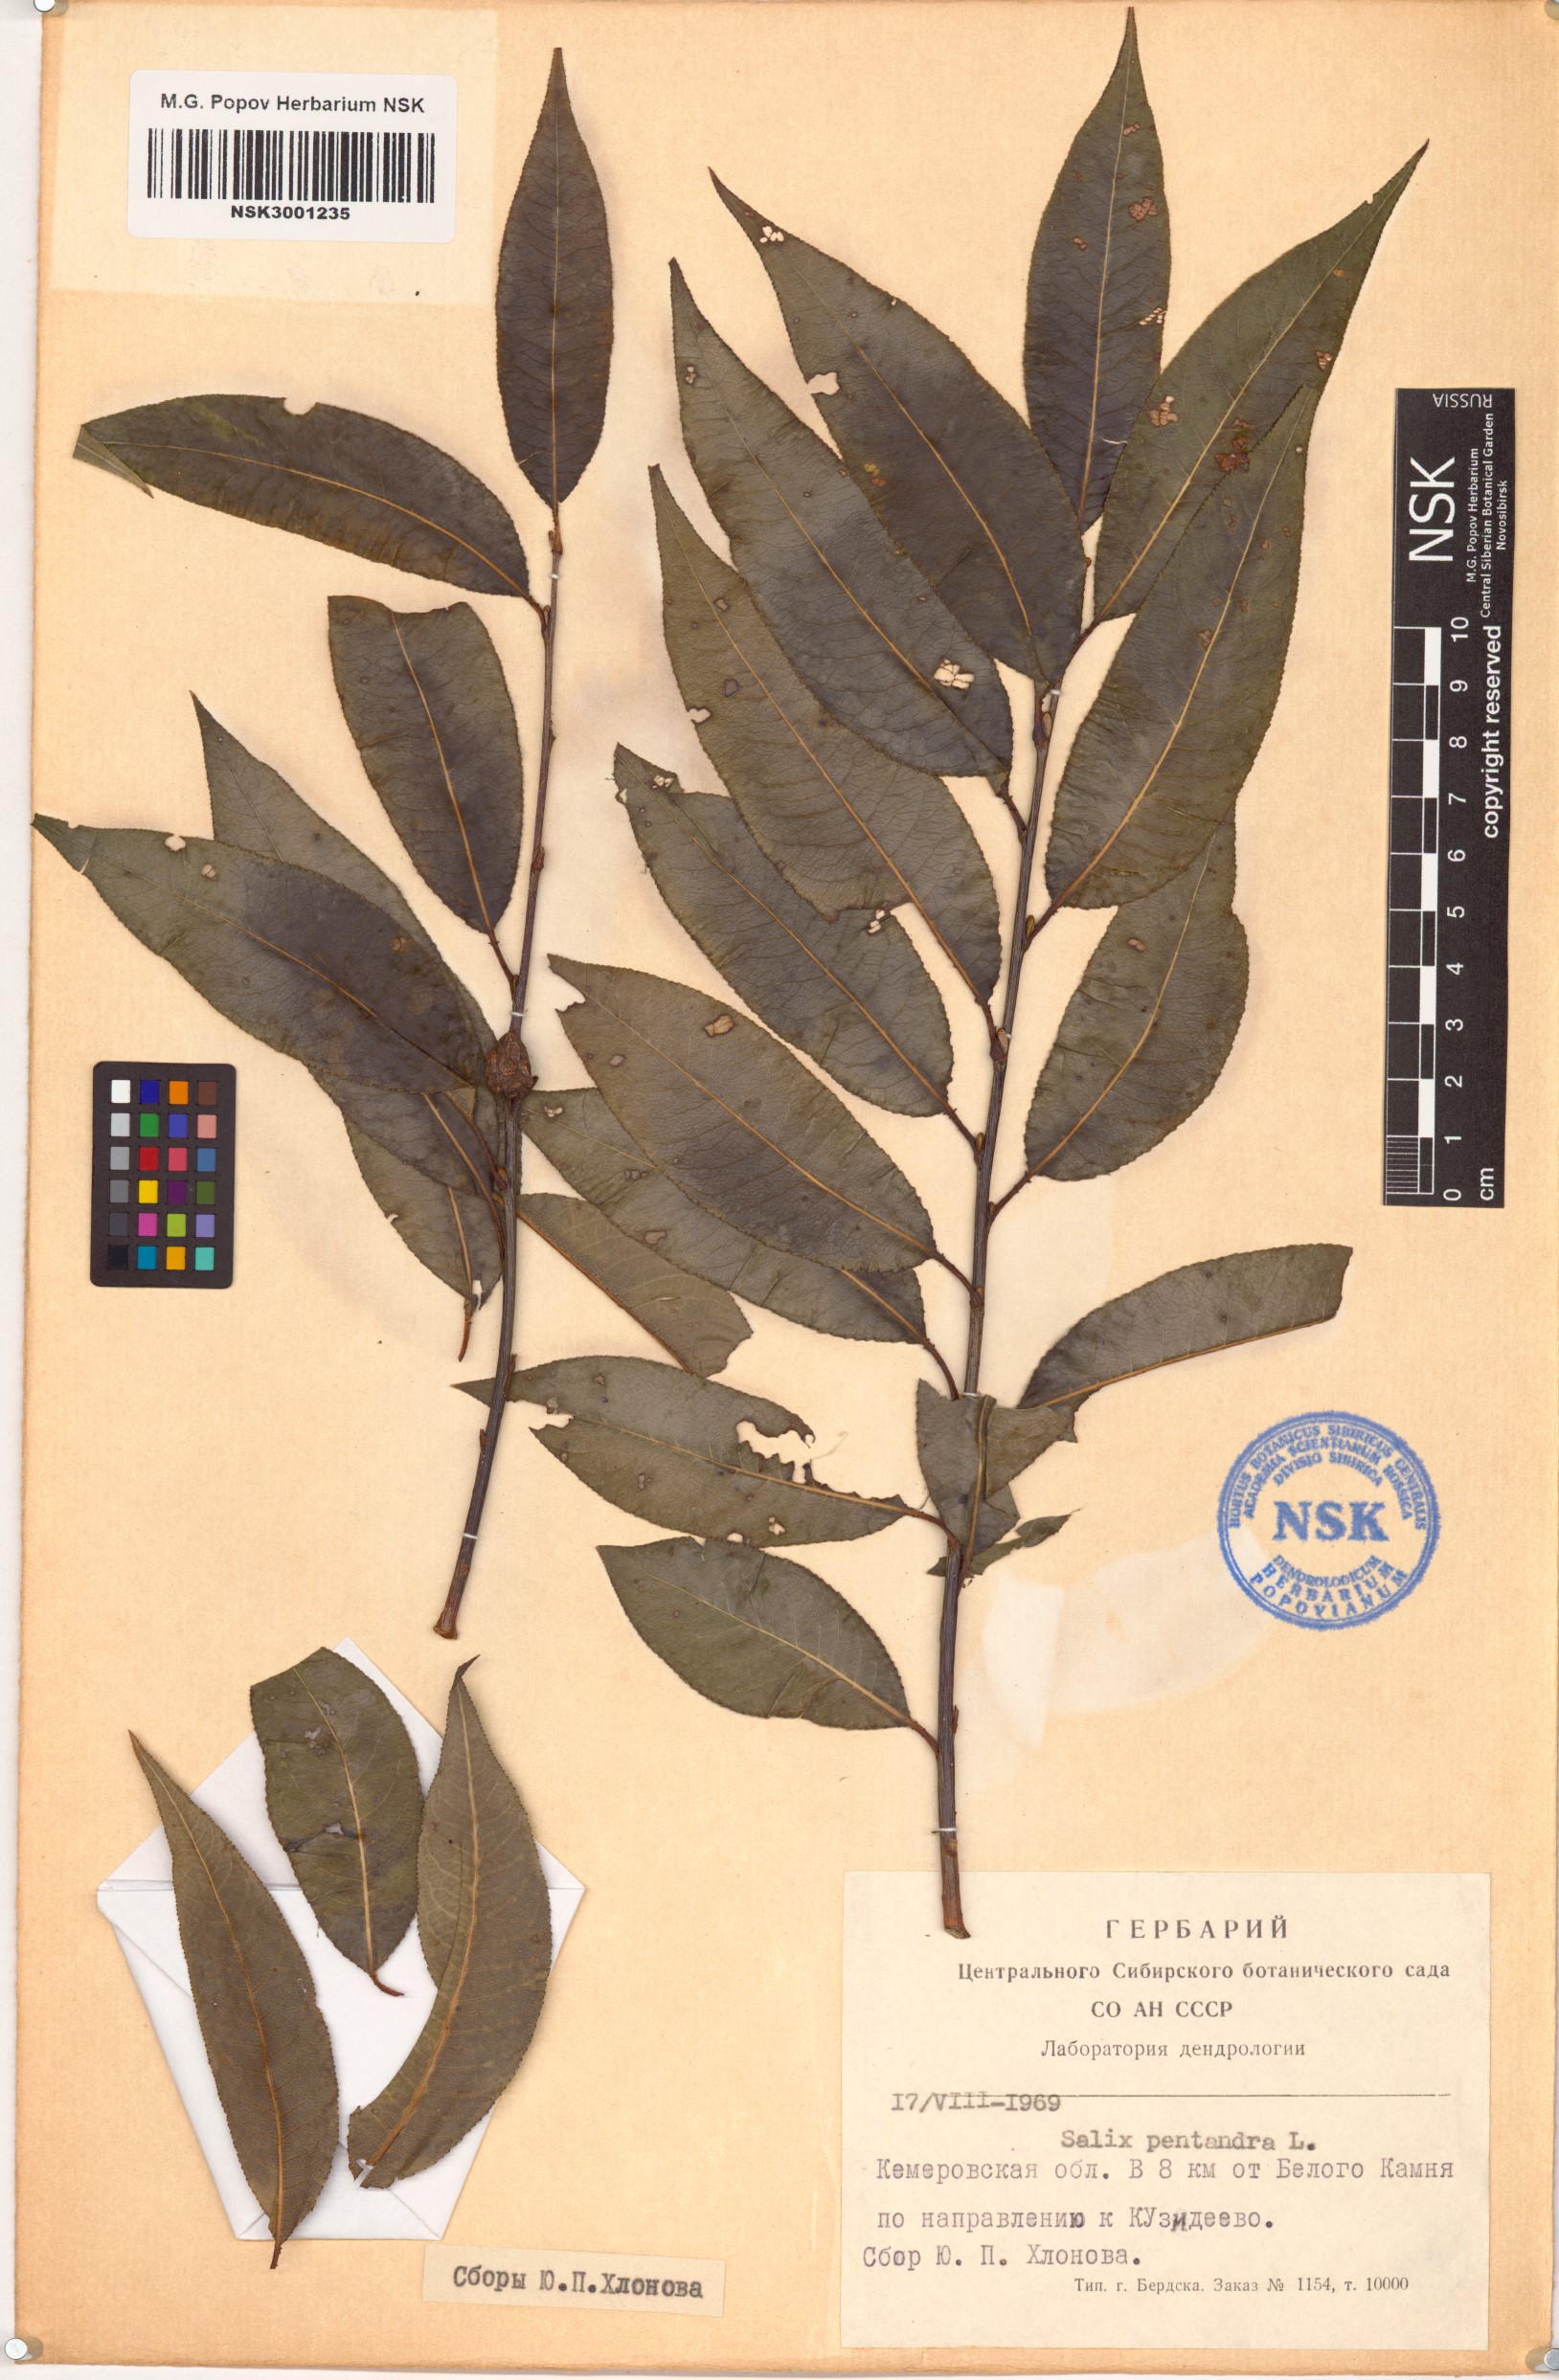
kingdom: Plantae
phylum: Tracheophyta
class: Magnoliopsida
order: Malpighiales
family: Salicaceae
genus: Salix
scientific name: Salix pentandra
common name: Bay willow
